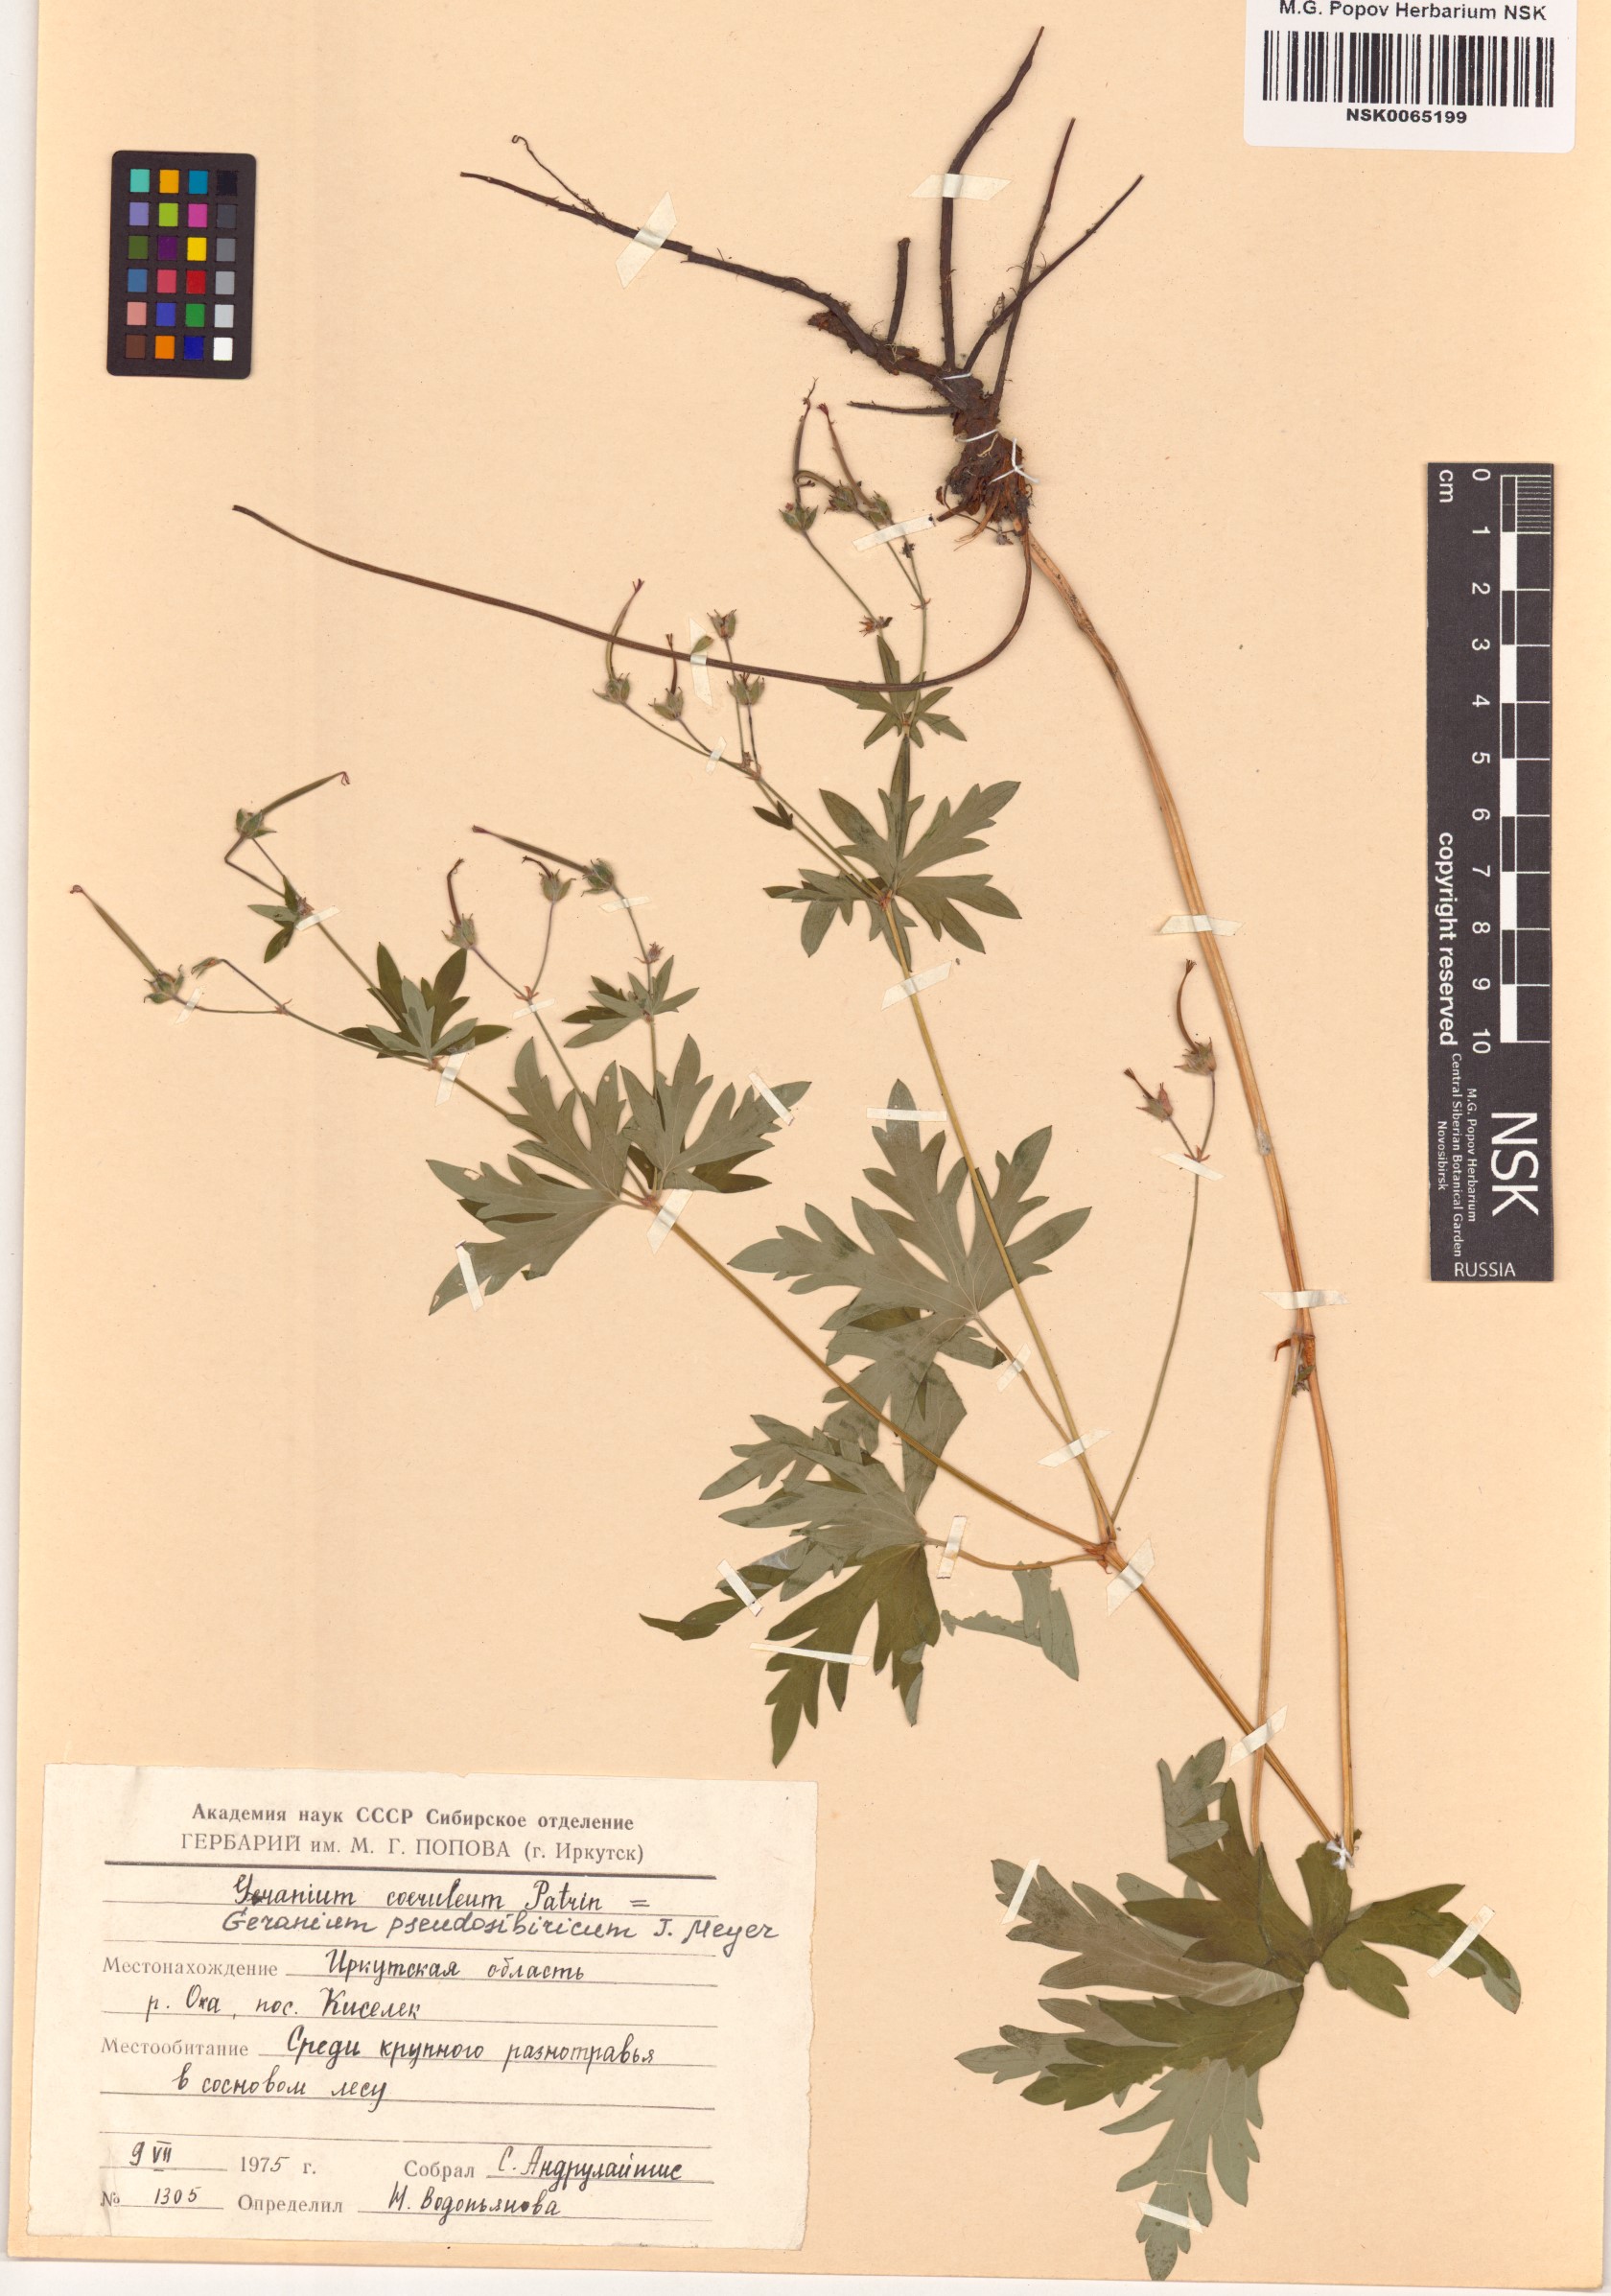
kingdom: Plantae
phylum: Tracheophyta
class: Magnoliopsida
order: Geraniales
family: Geraniaceae
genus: Geranium
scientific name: Geranium pseudosibiricum
